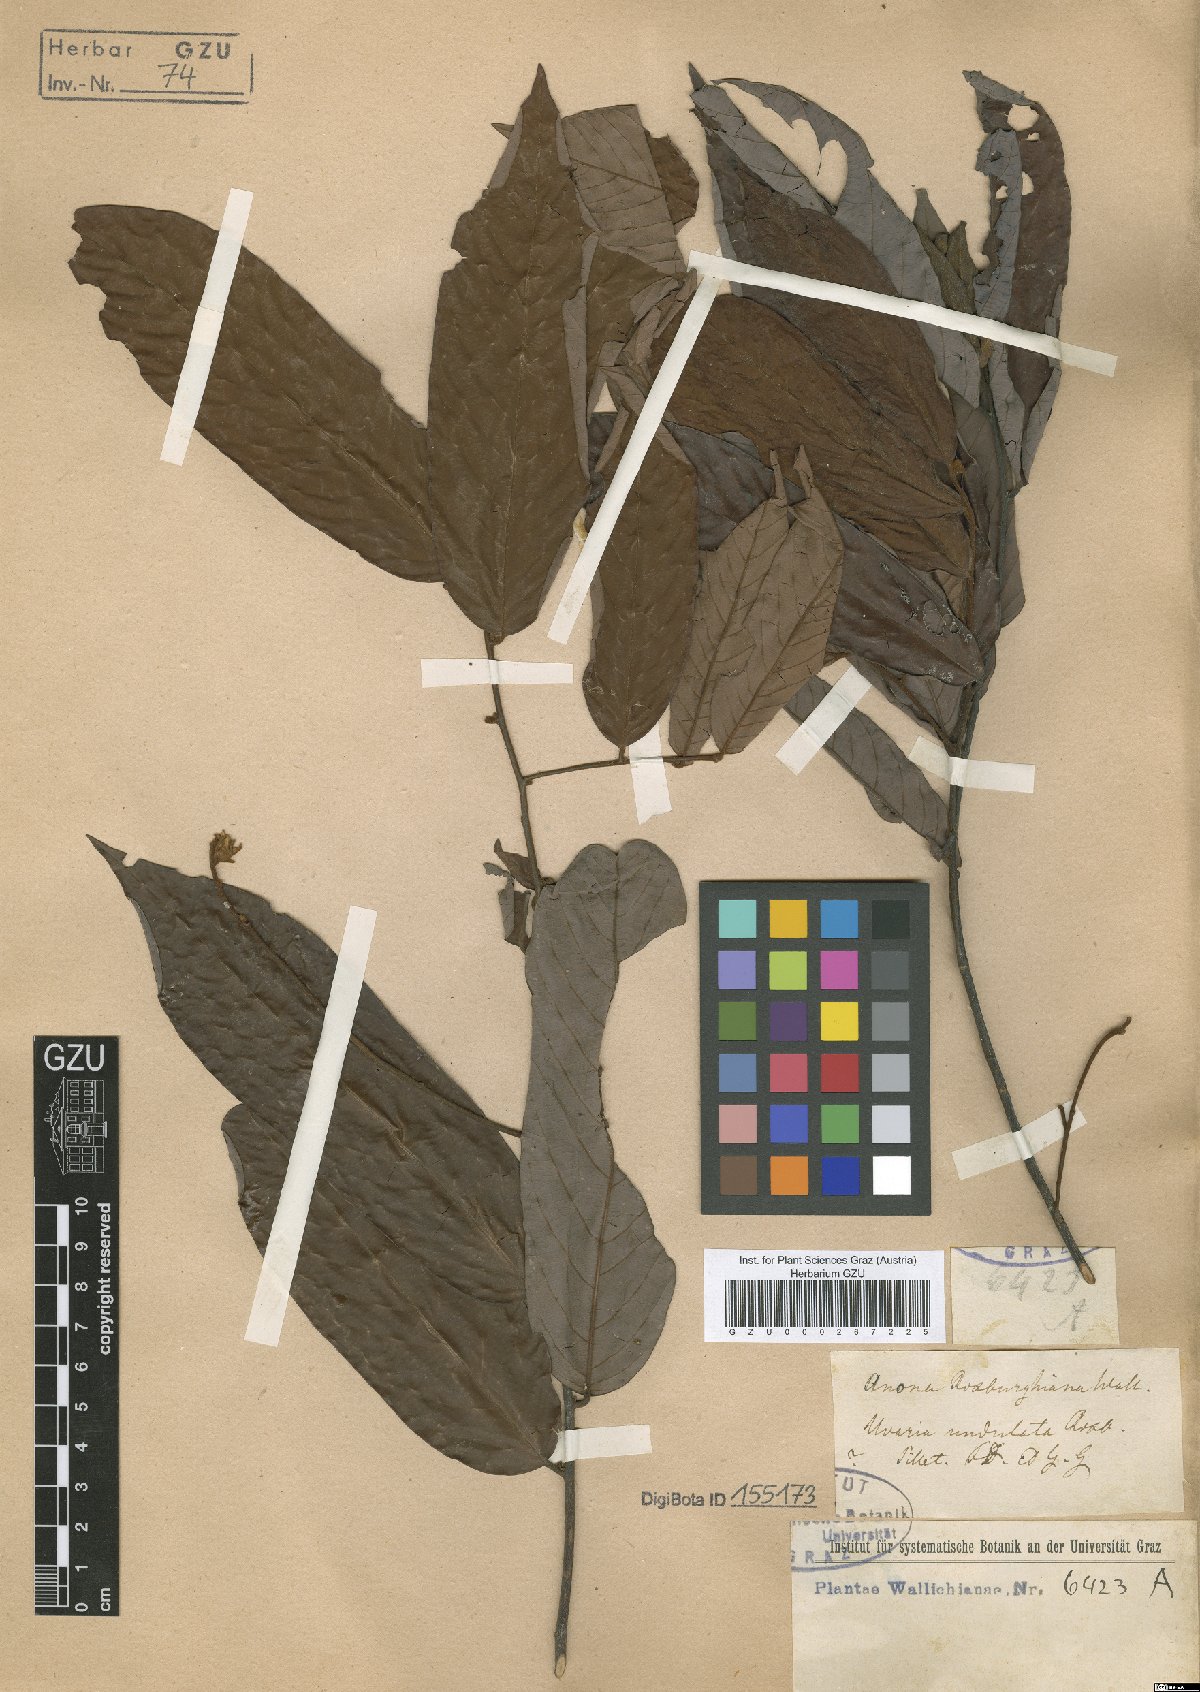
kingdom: Plantae
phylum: Tracheophyta
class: Magnoliopsida
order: Magnoliales
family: Annonaceae
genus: Annona
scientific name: Annona roxburghiana
